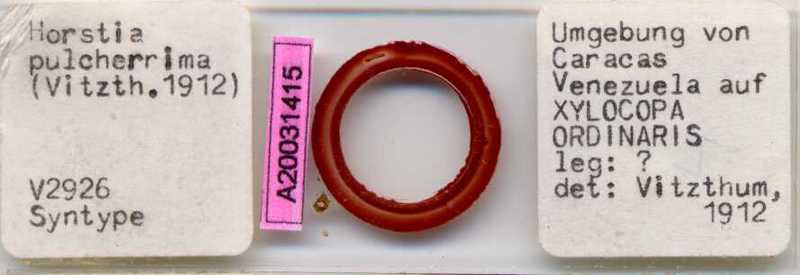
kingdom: Animalia
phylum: Hemichordata
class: Enteropneusta
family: Harrimaniidae
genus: Horstia
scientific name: Horstia
